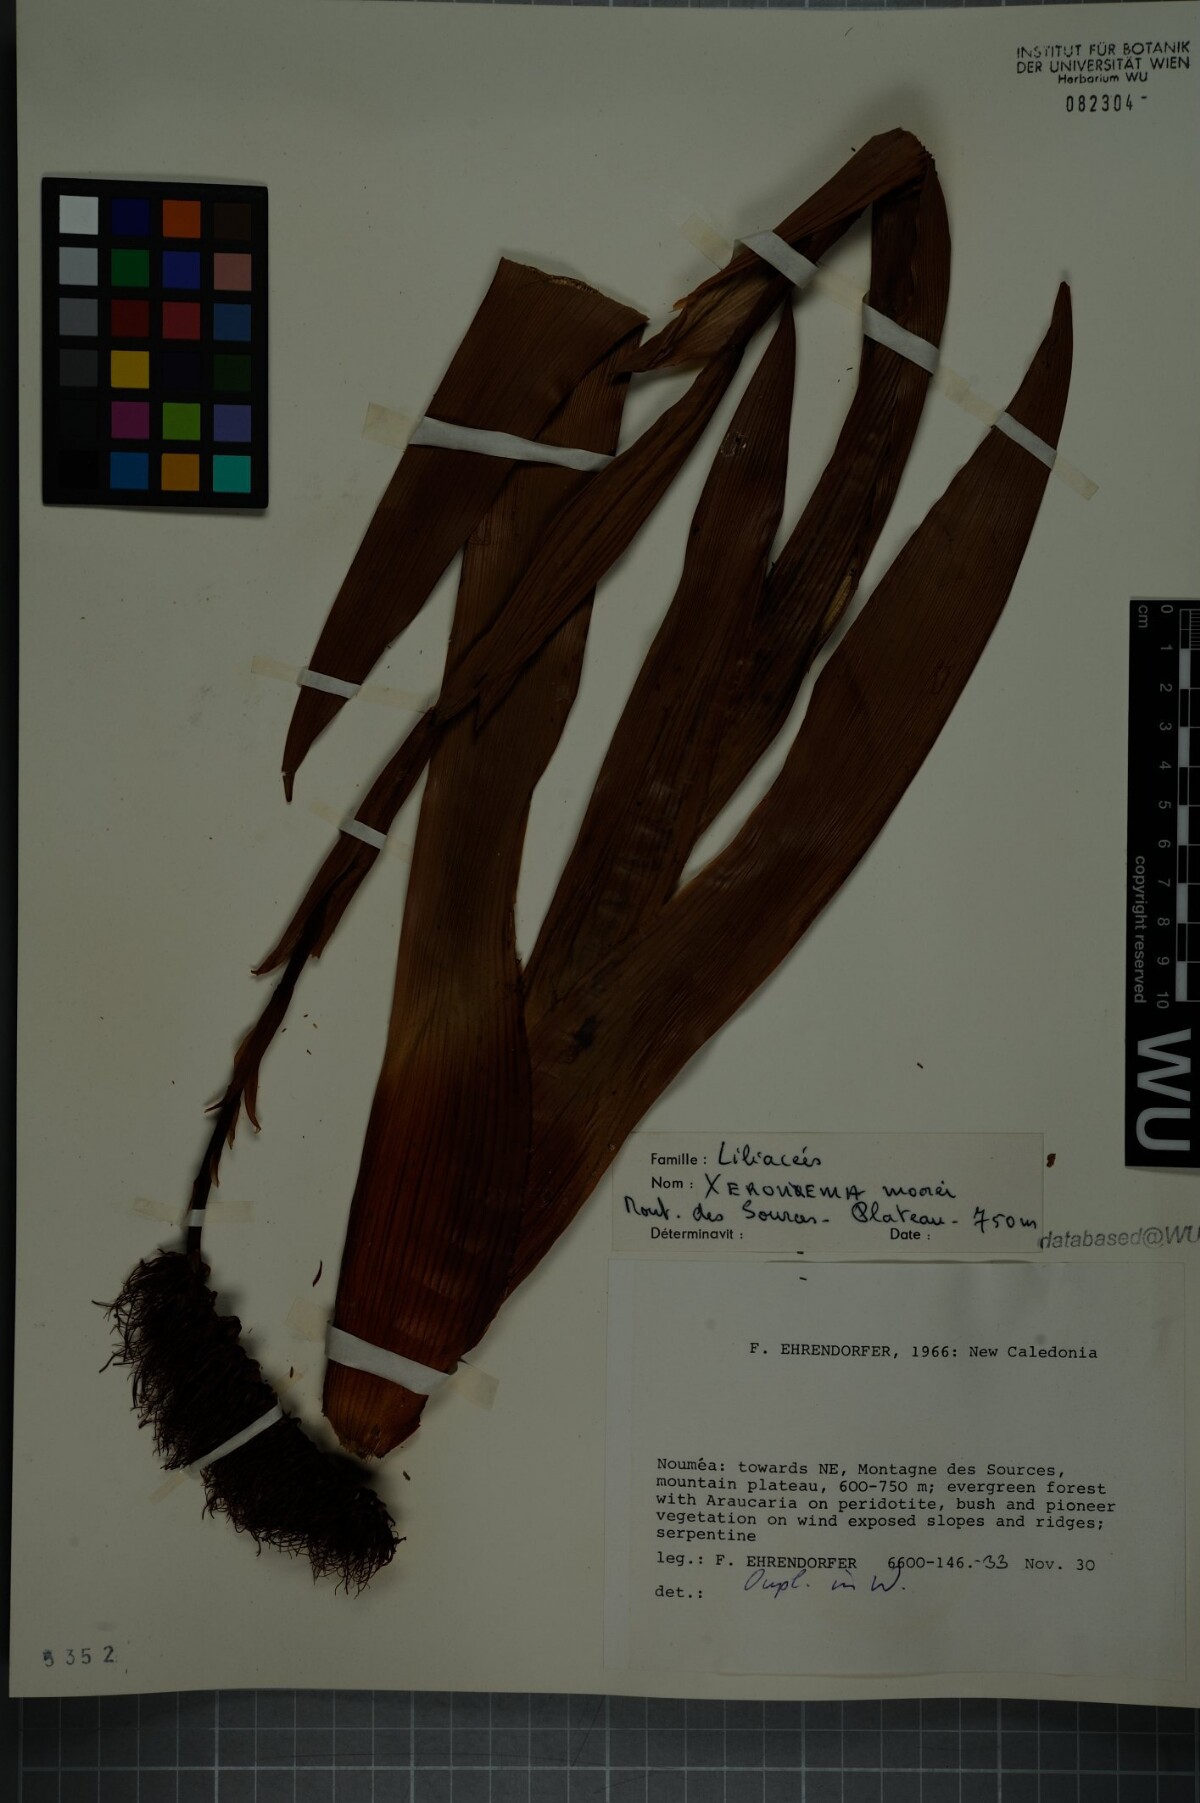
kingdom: Plantae
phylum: Tracheophyta
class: Liliopsida
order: Asparagales
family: Xeronemataceae
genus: Xeronema
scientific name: Xeronema moorei
